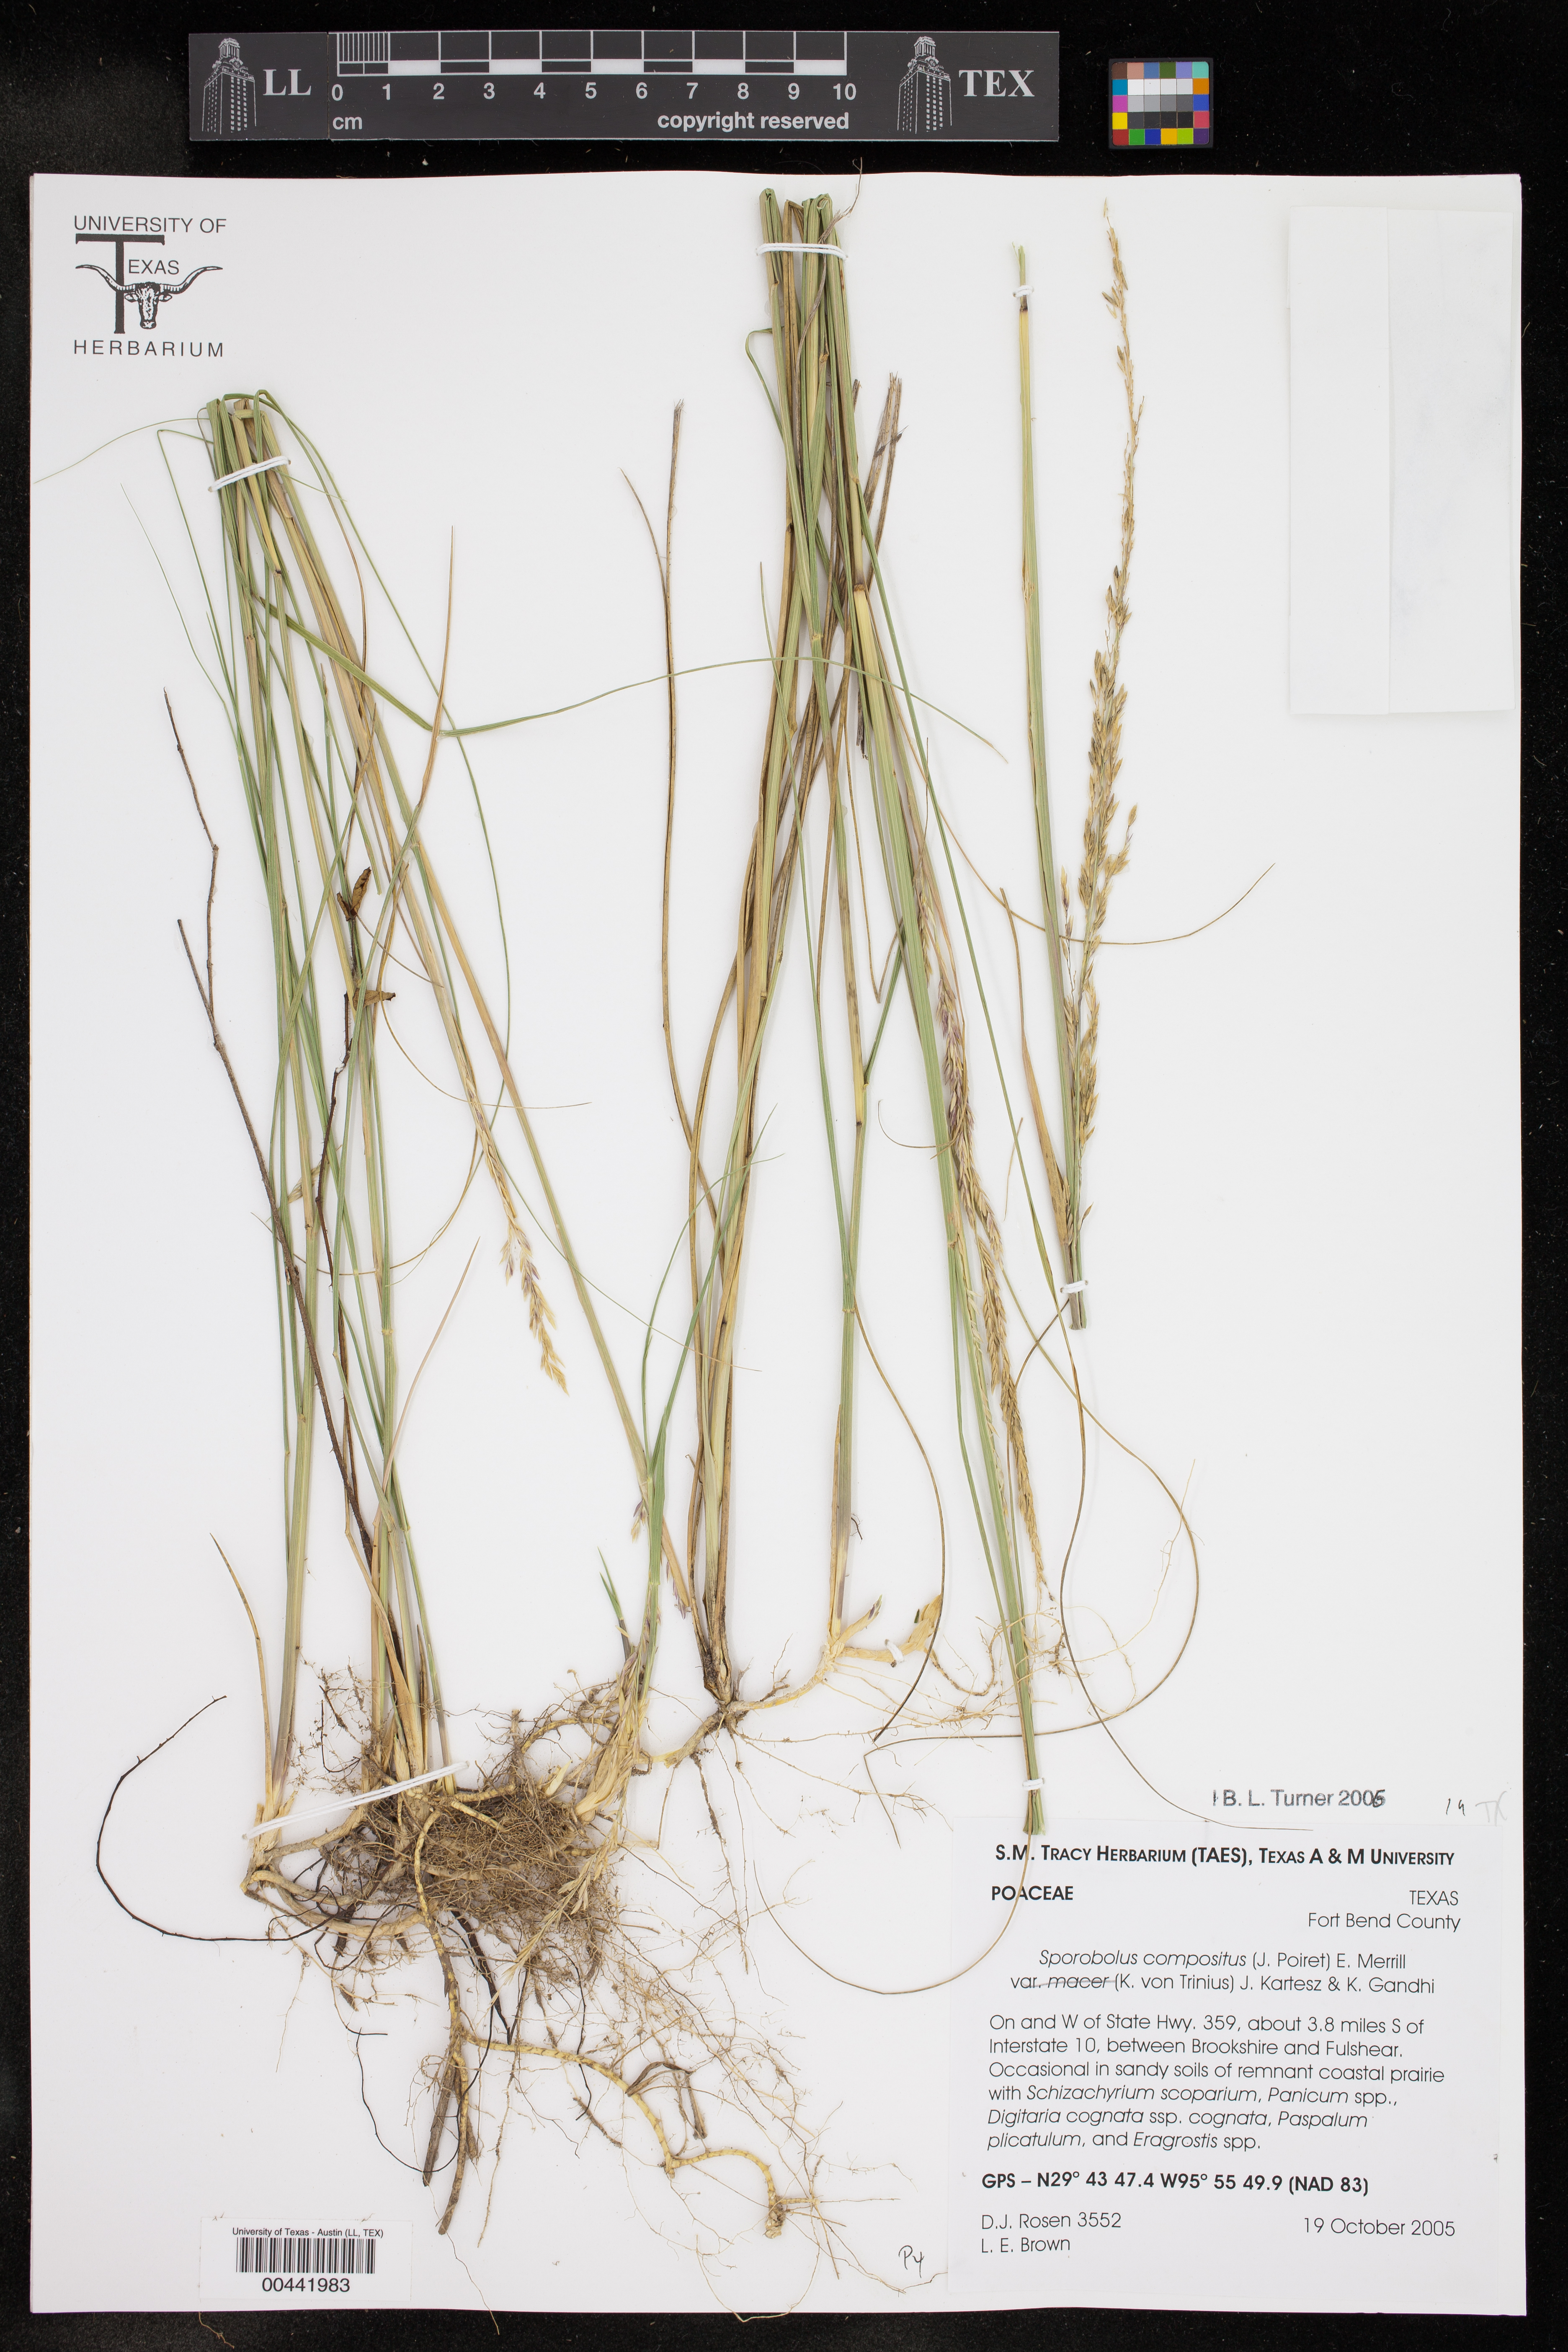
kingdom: Plantae
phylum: Tracheophyta
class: Liliopsida
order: Poales
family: Poaceae
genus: Sporobolus
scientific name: Sporobolus macer
